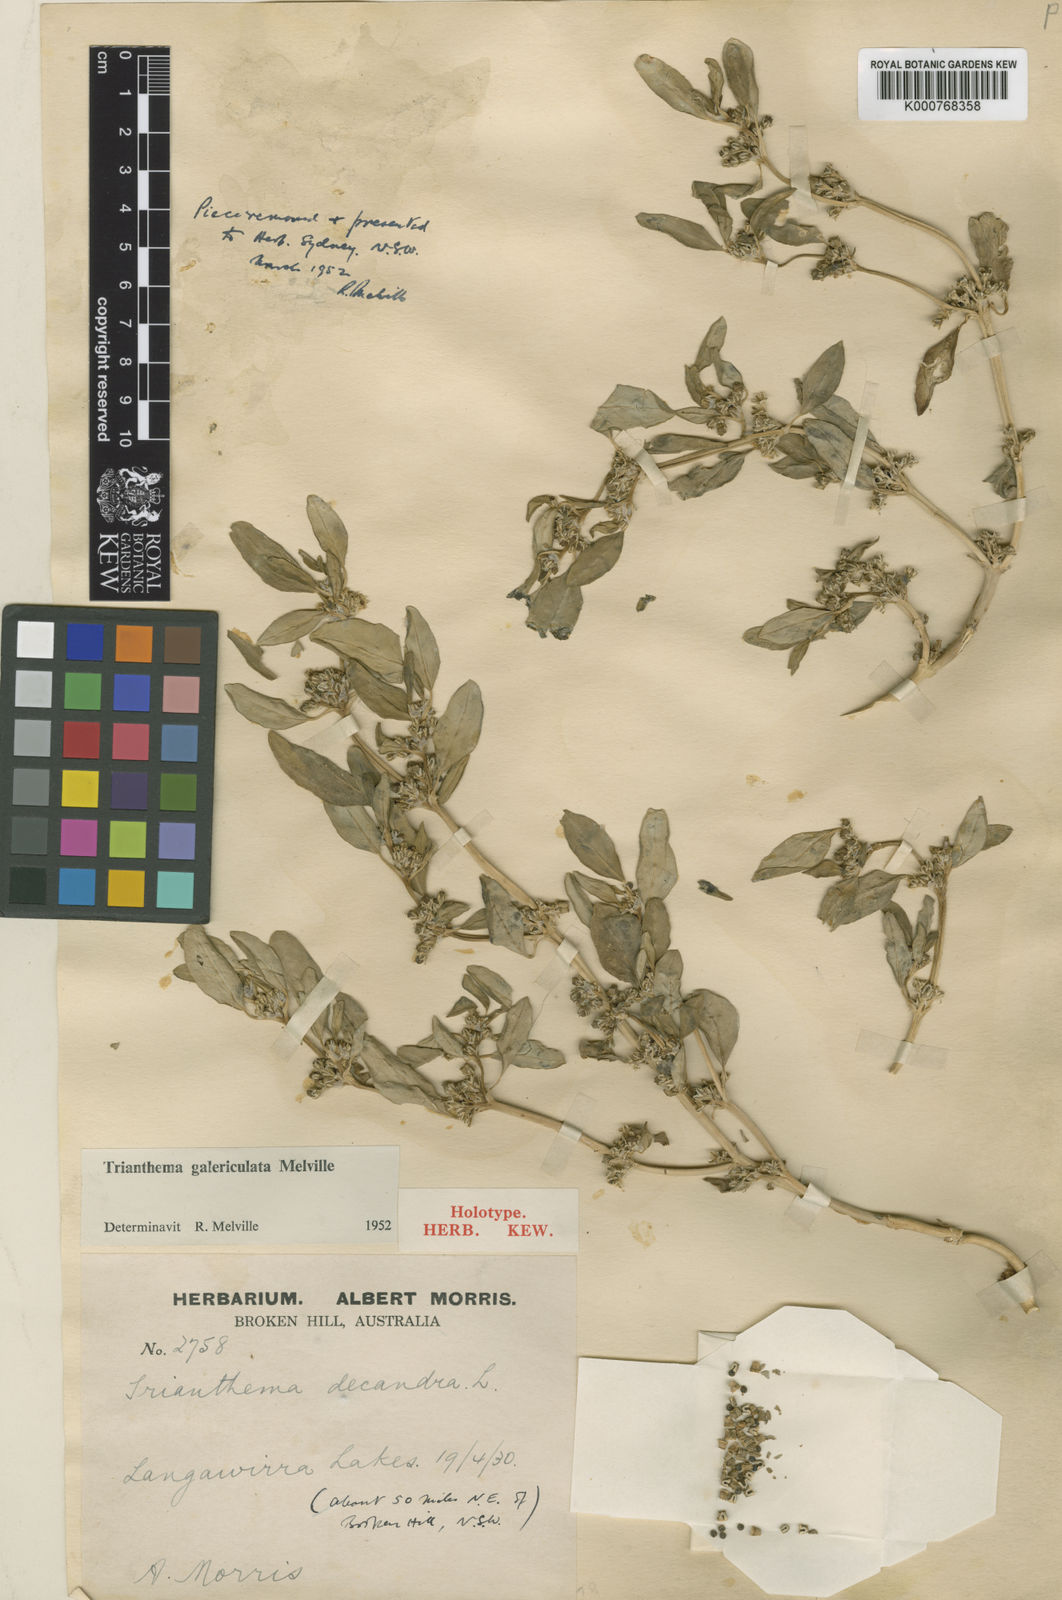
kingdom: Plantae
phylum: Tracheophyta
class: Magnoliopsida
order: Caryophyllales
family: Aizoaceae
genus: Zaleya
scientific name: Zaleya galericulata
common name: Garden-pigweed
